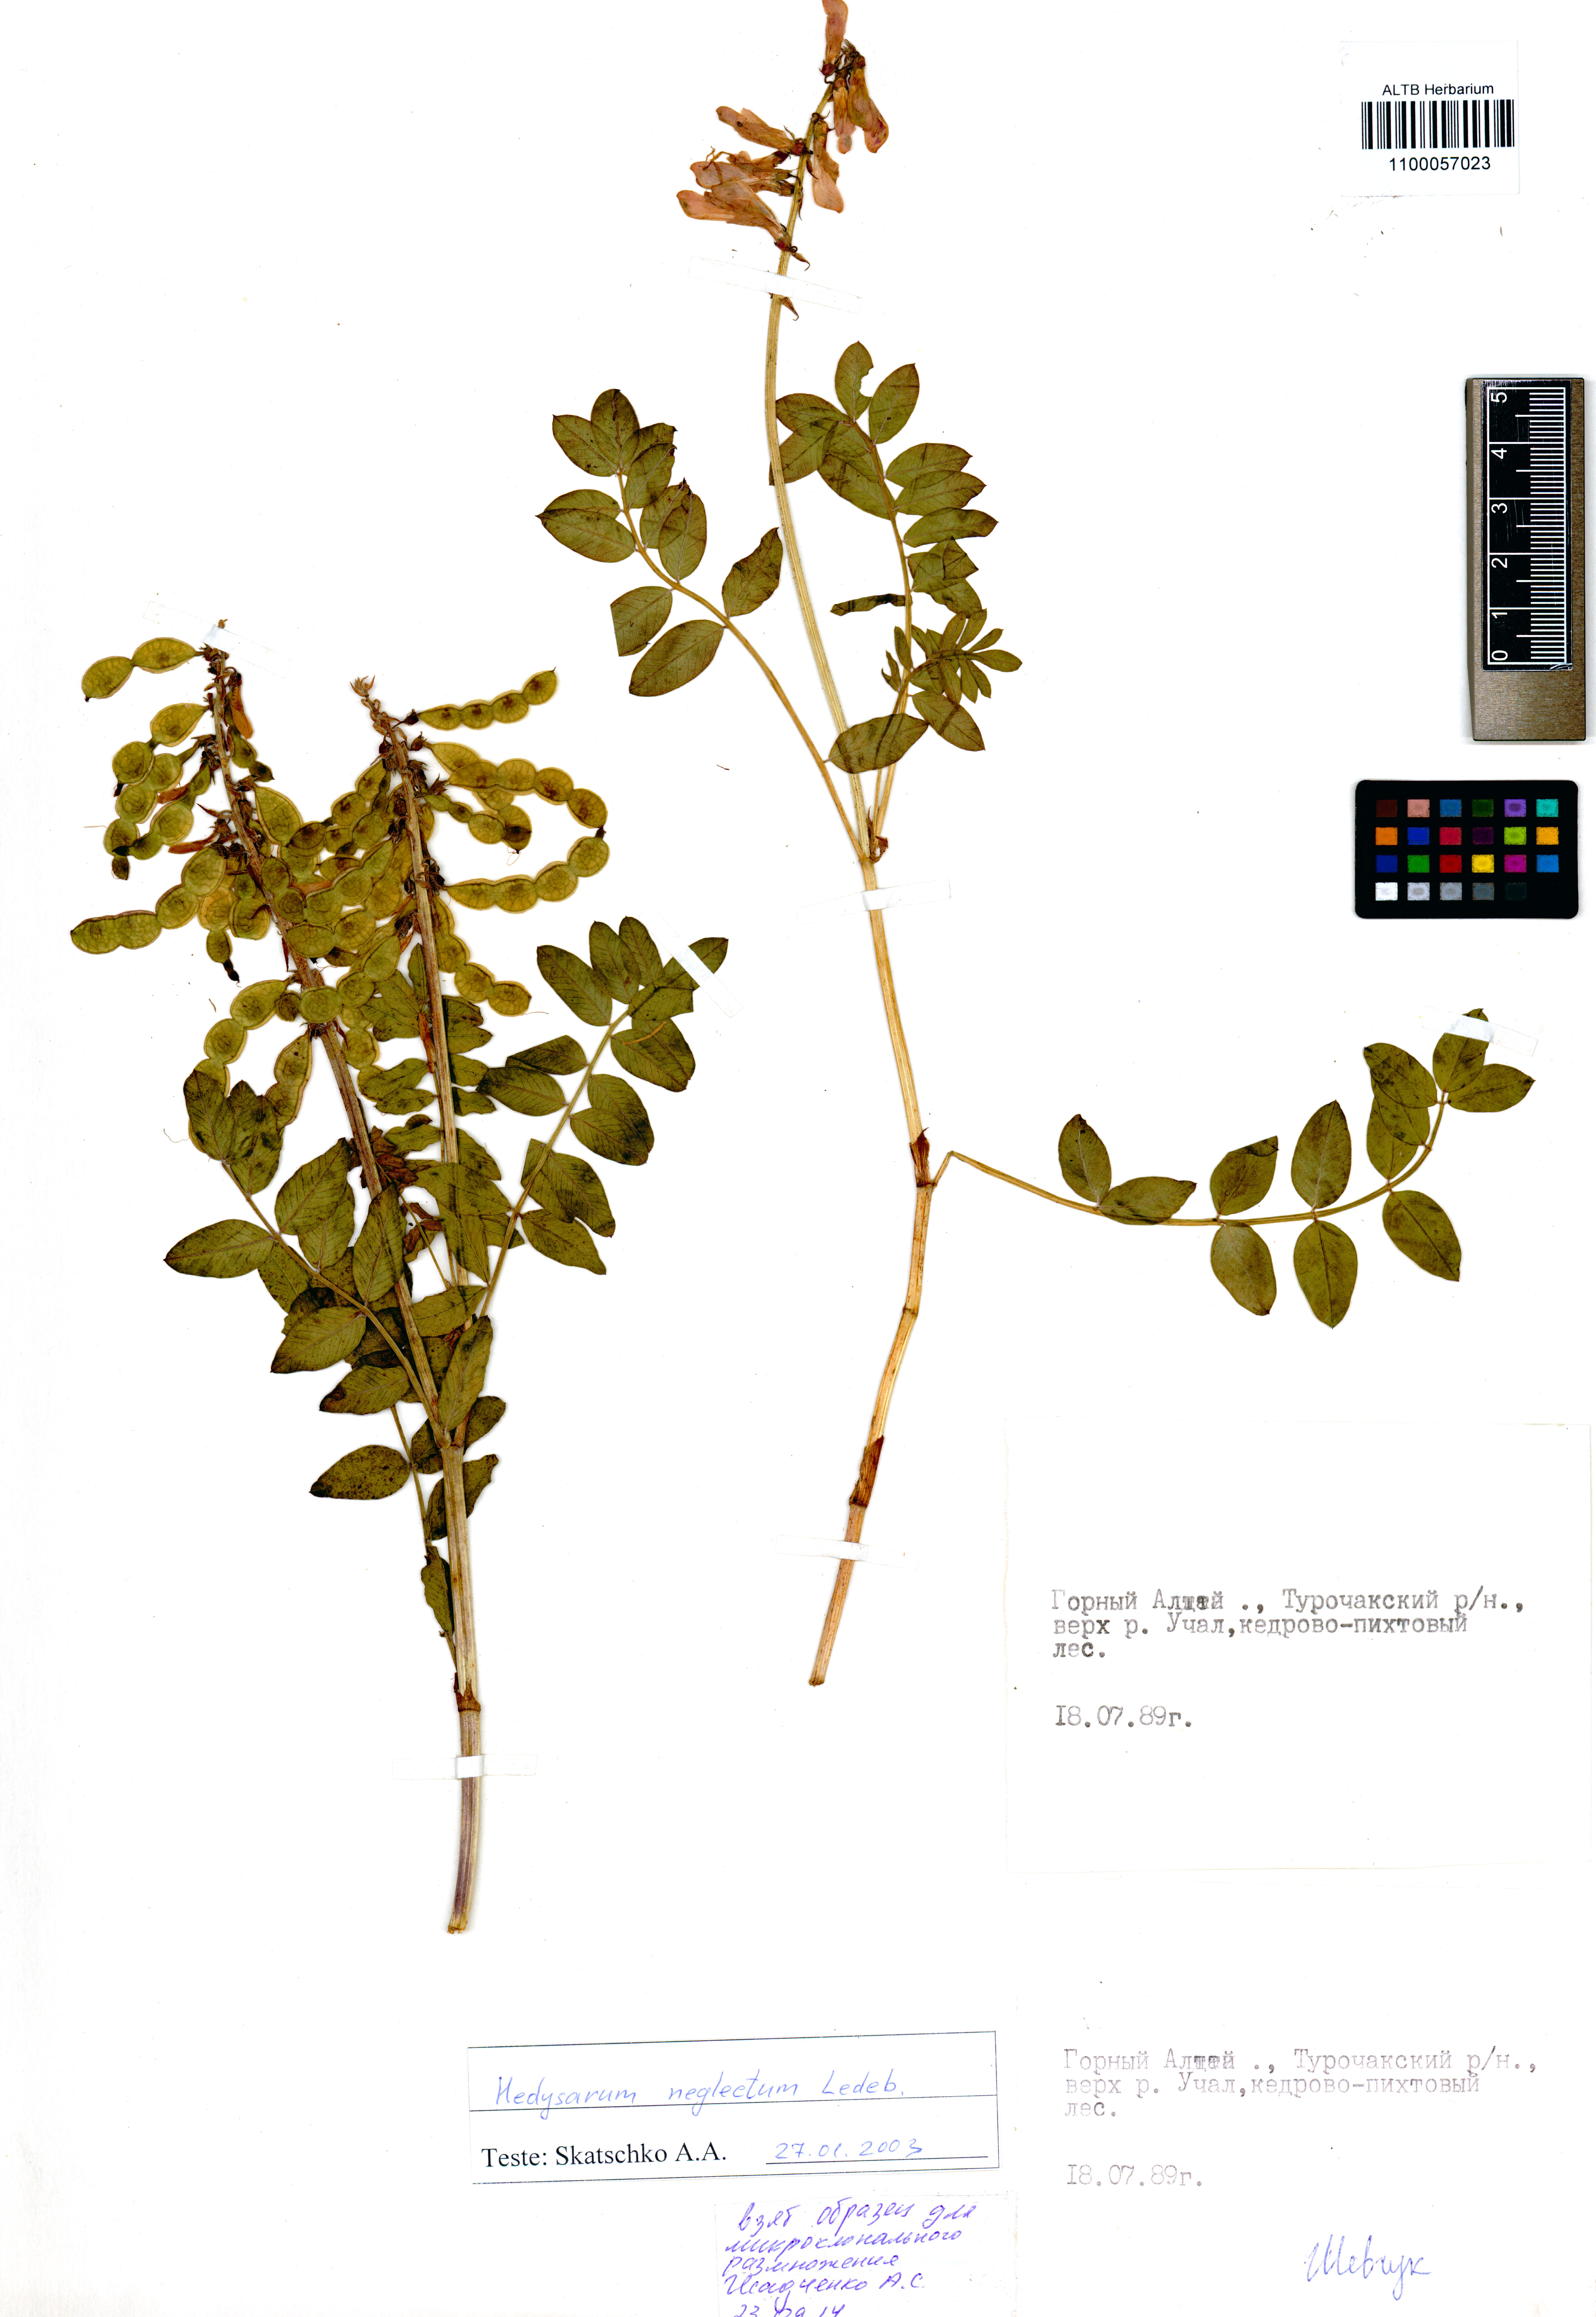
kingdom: Plantae
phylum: Tracheophyta
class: Magnoliopsida
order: Fabales
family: Fabaceae
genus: Hedysarum
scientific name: Hedysarum neglectum
